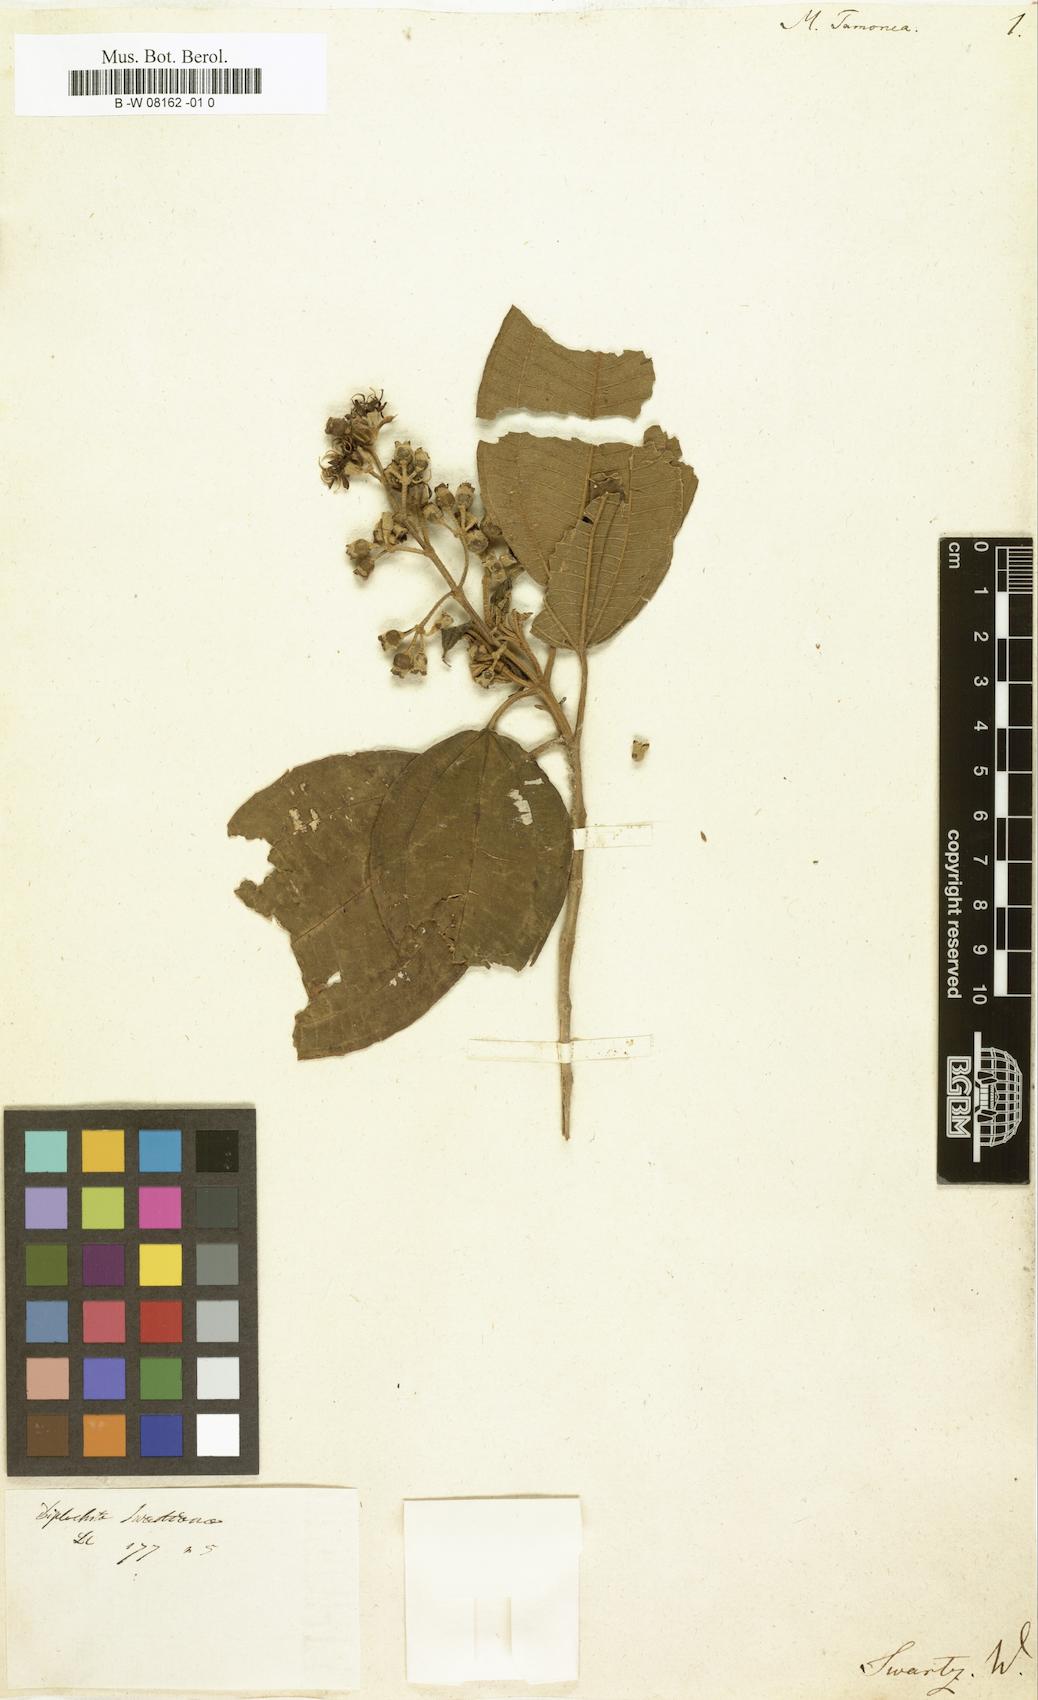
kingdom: Plantae
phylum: Tracheophyta
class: Magnoliopsida
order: Myrtales
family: Melastomataceae
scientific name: Melastomataceae
